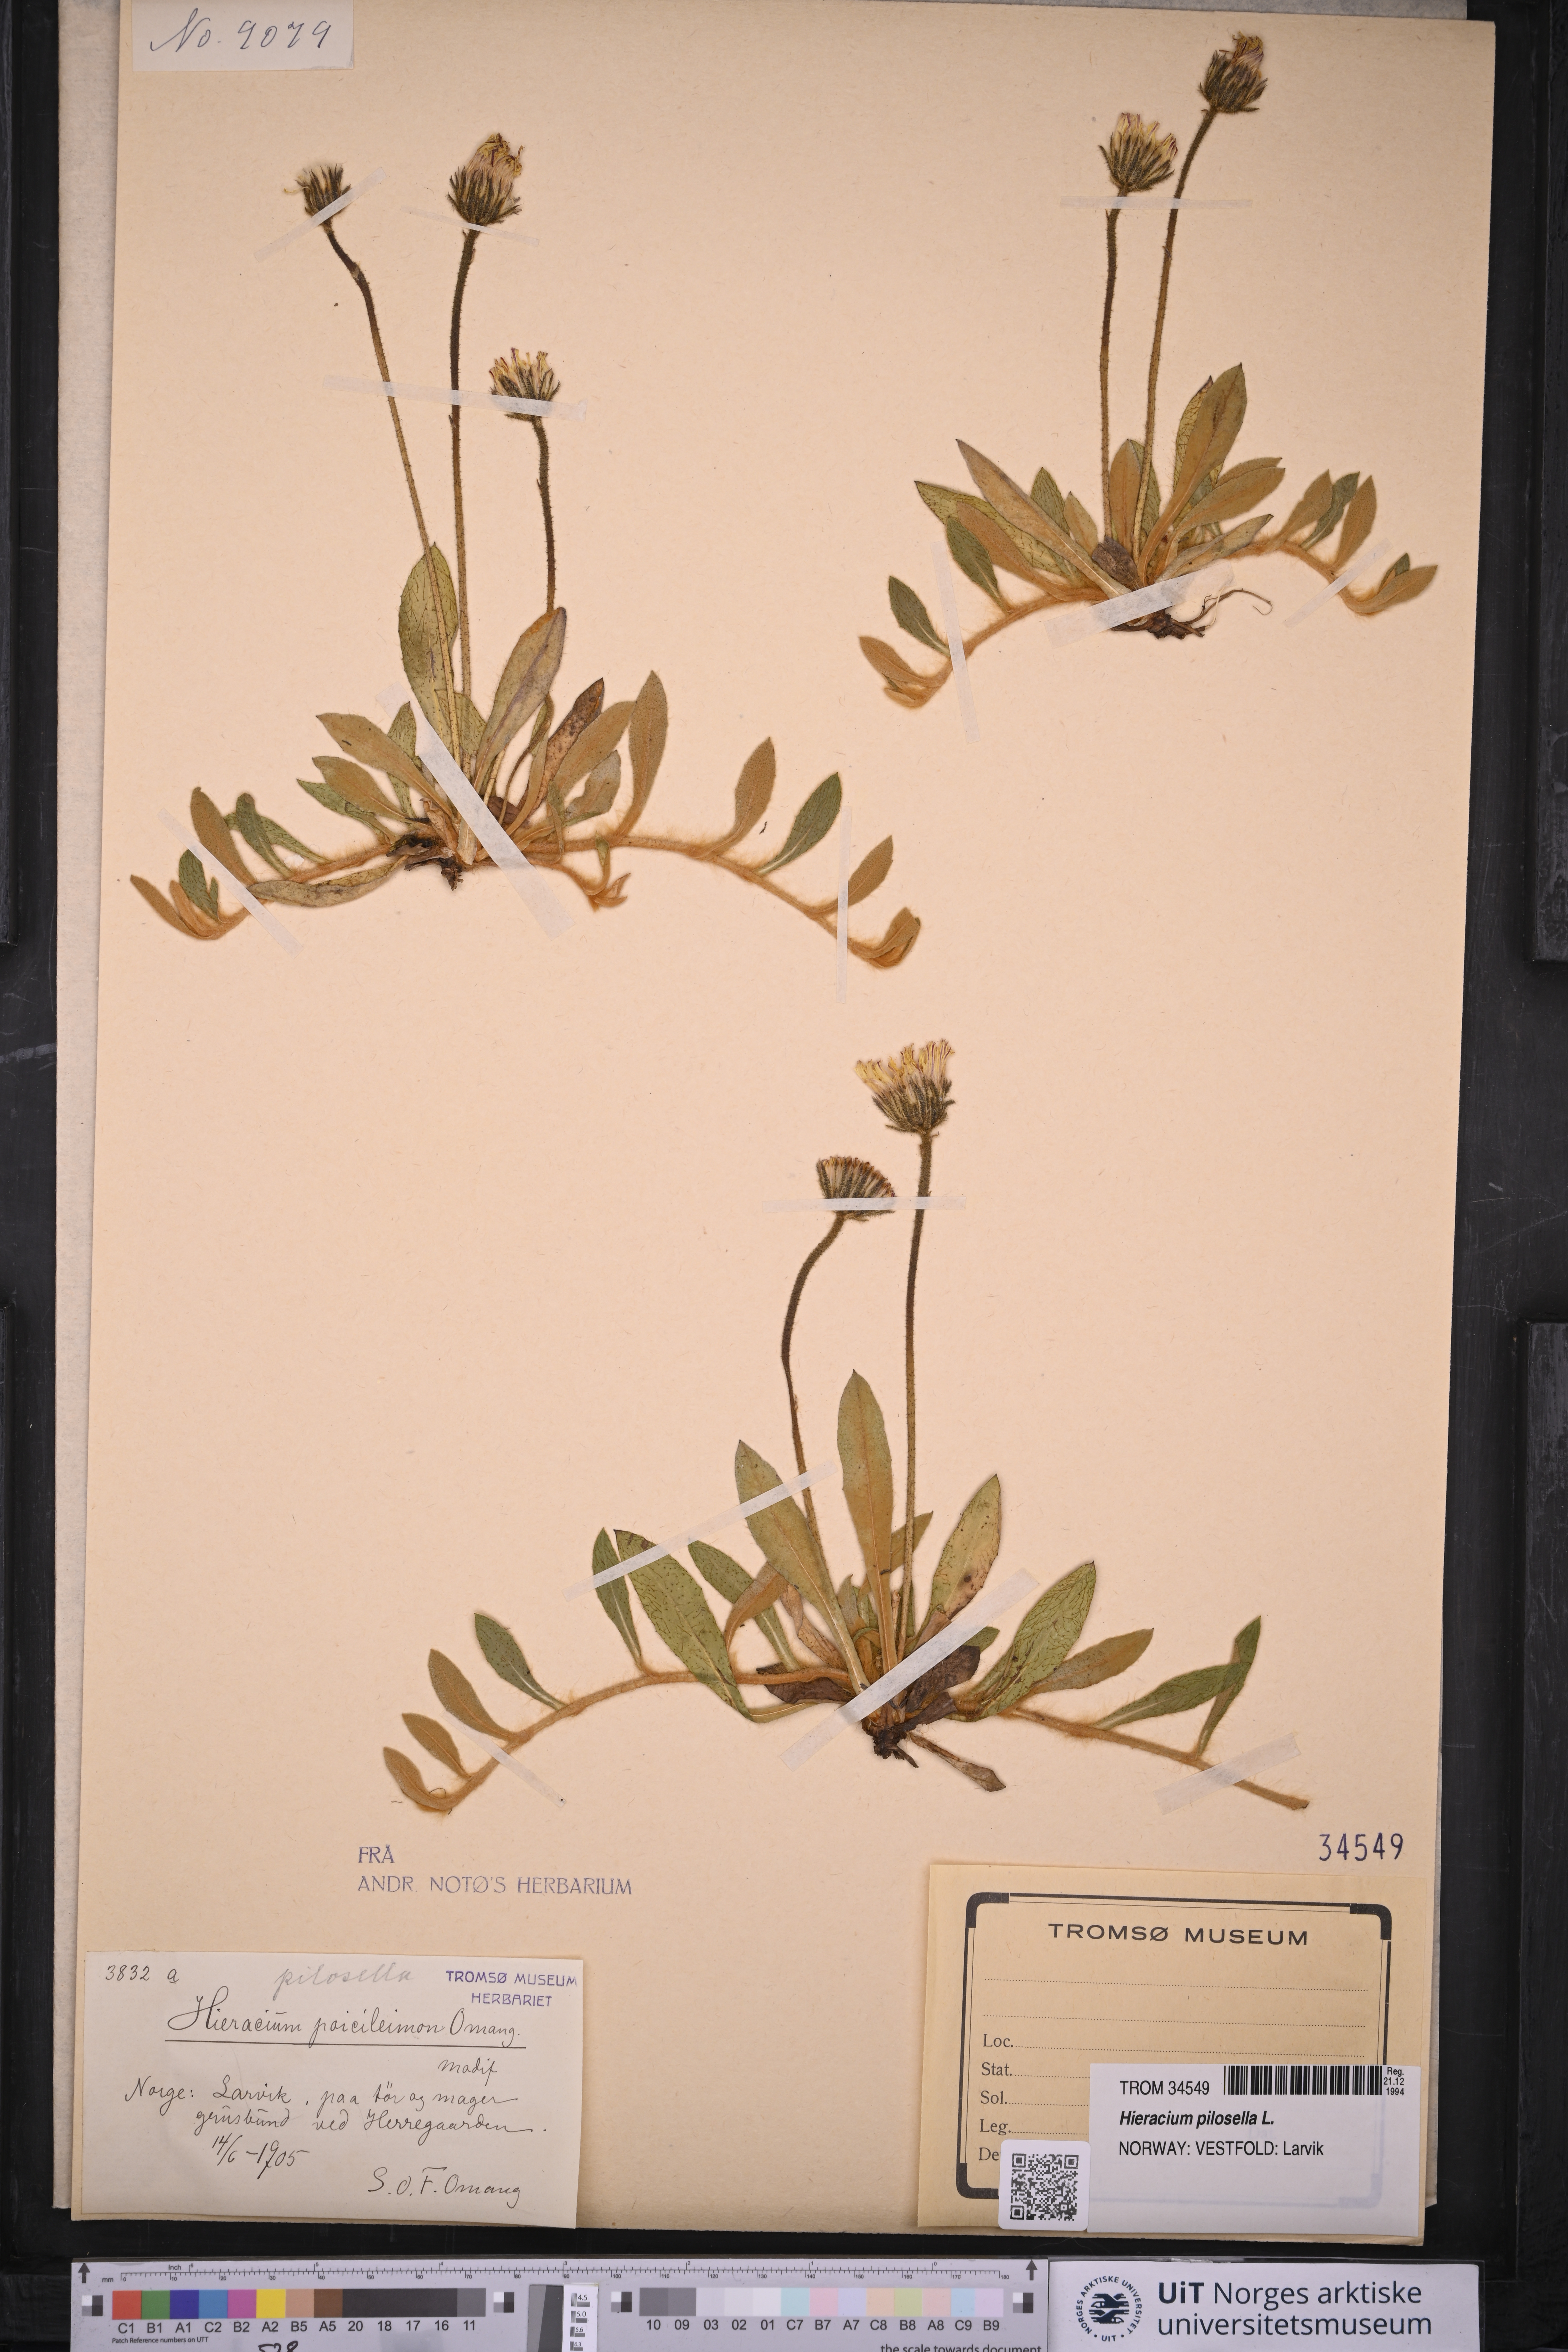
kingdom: Plantae
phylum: Tracheophyta
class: Magnoliopsida
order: Asterales
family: Asteraceae
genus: Pilosella
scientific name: Pilosella officinarum
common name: Mouse-ear hawkweed
